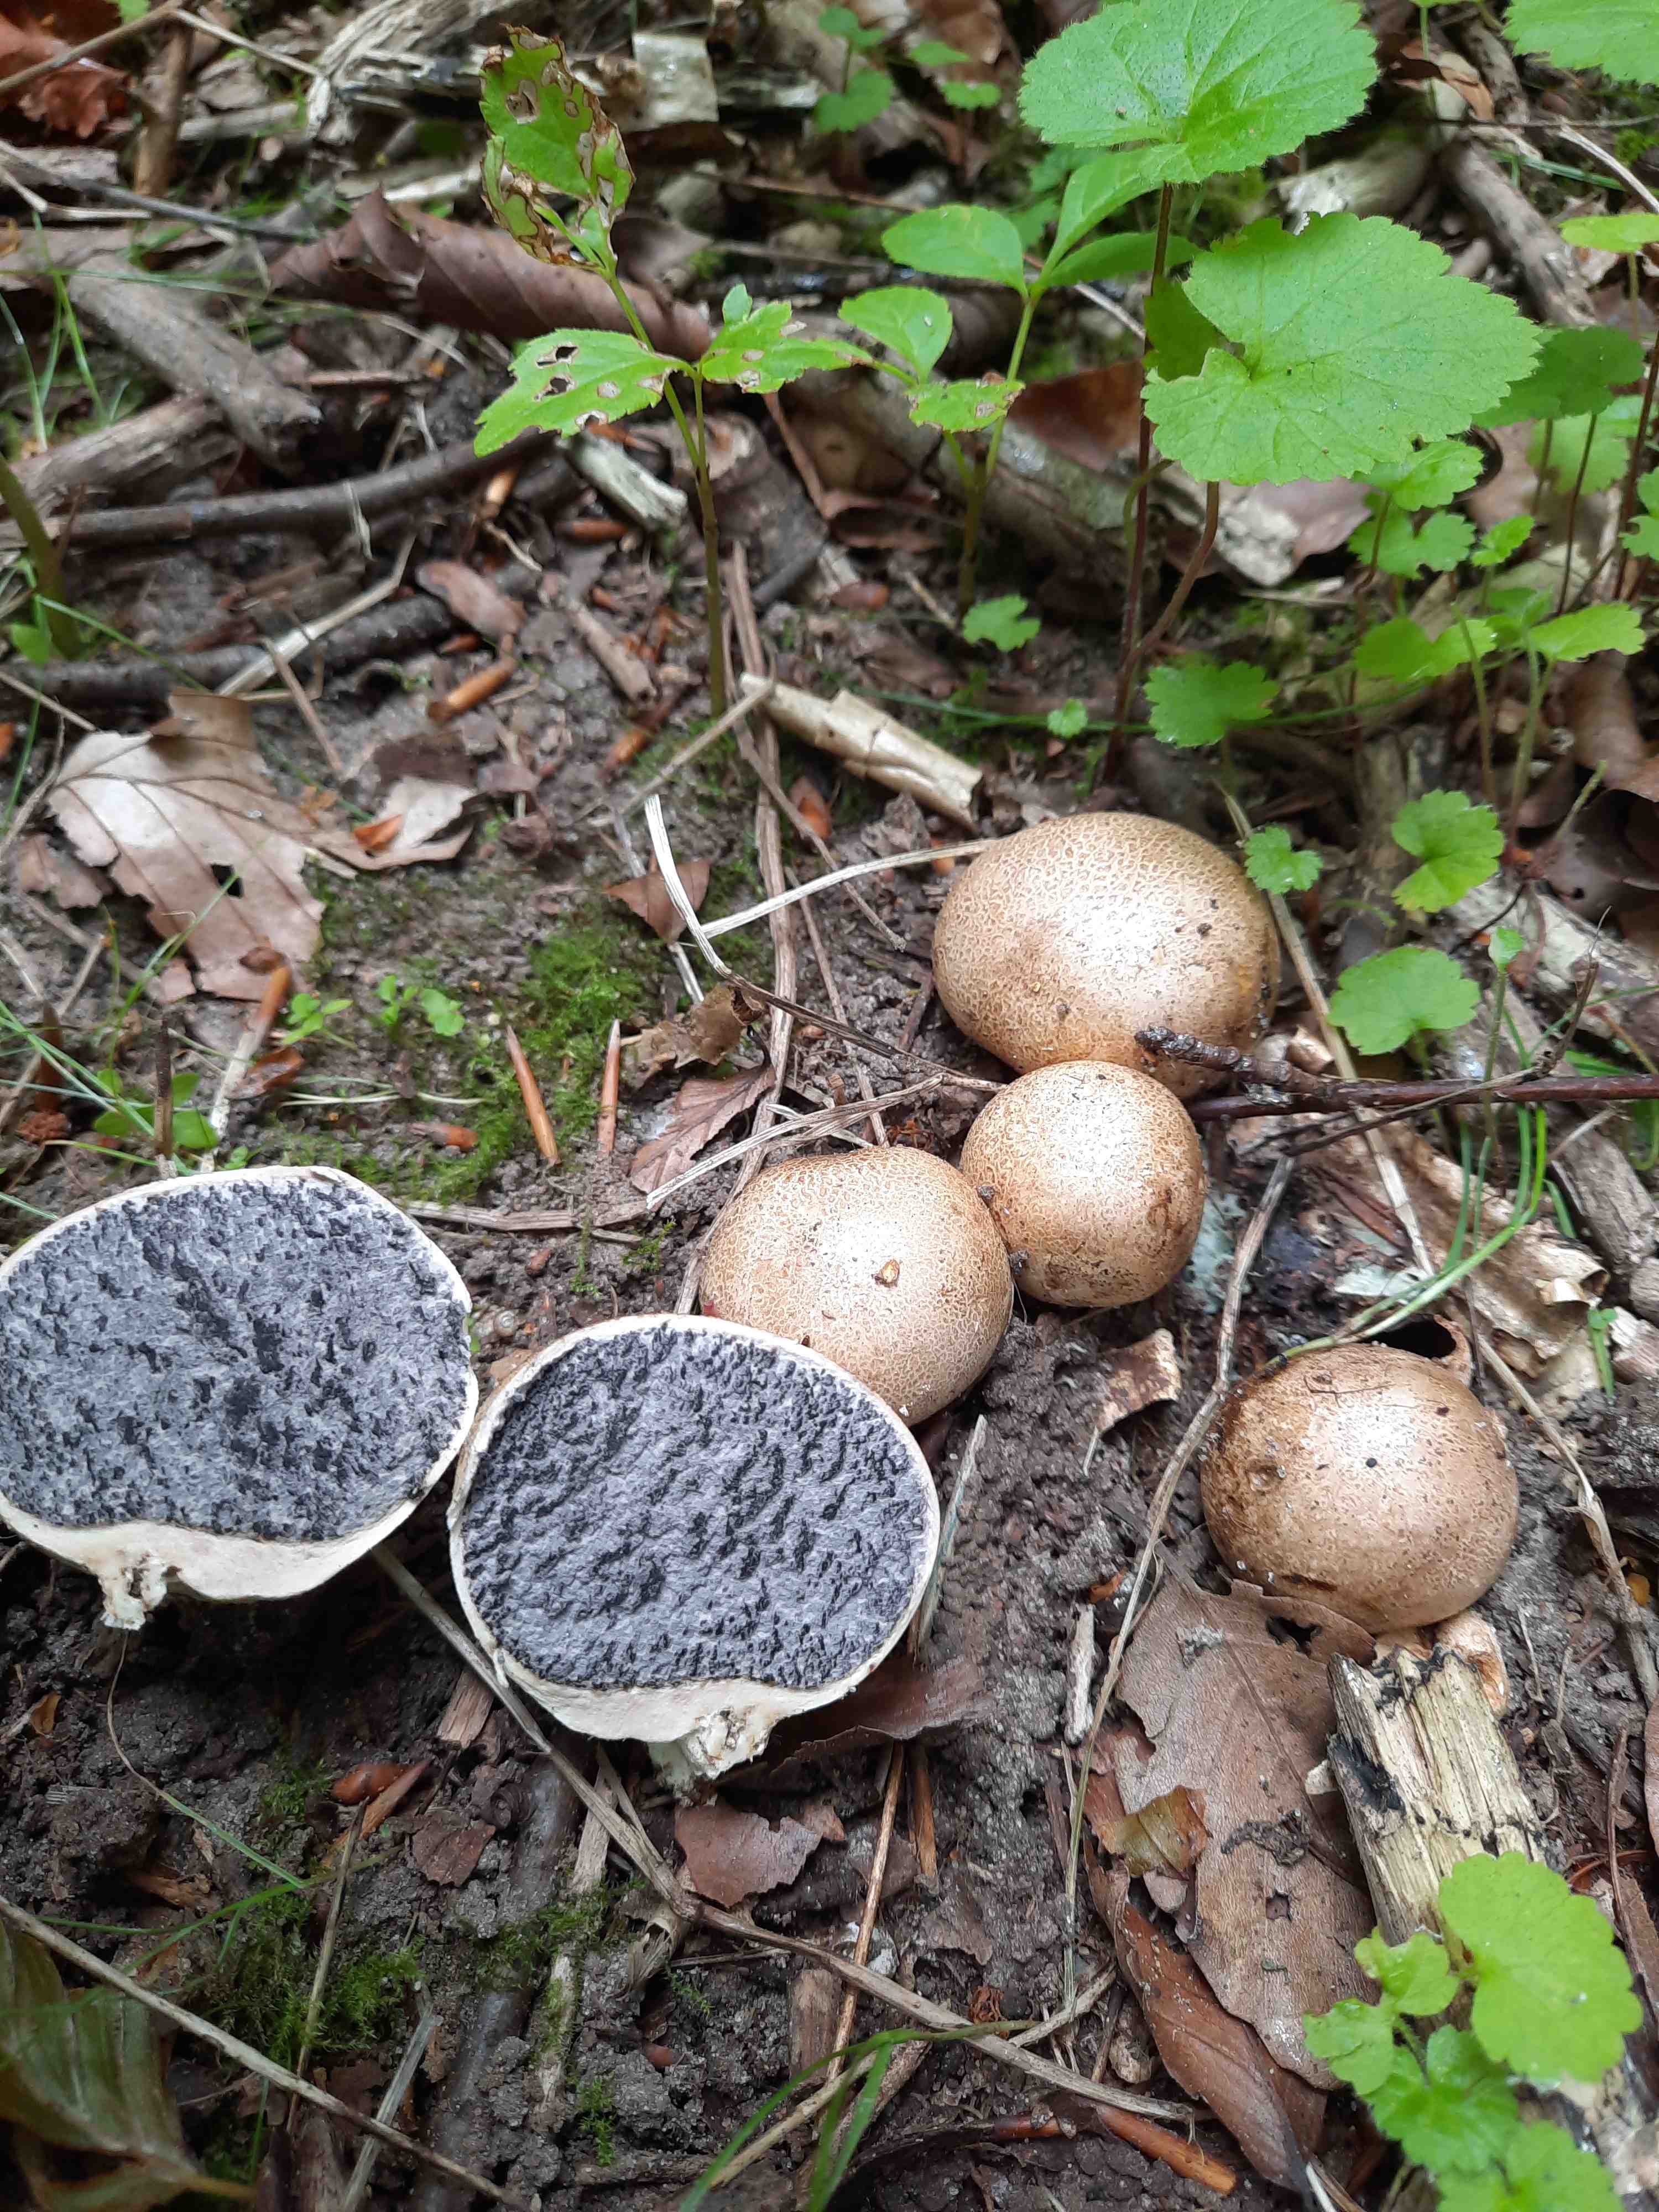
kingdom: Fungi
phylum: Basidiomycota
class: Agaricomycetes
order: Boletales
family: Sclerodermataceae
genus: Scleroderma
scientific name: Scleroderma
